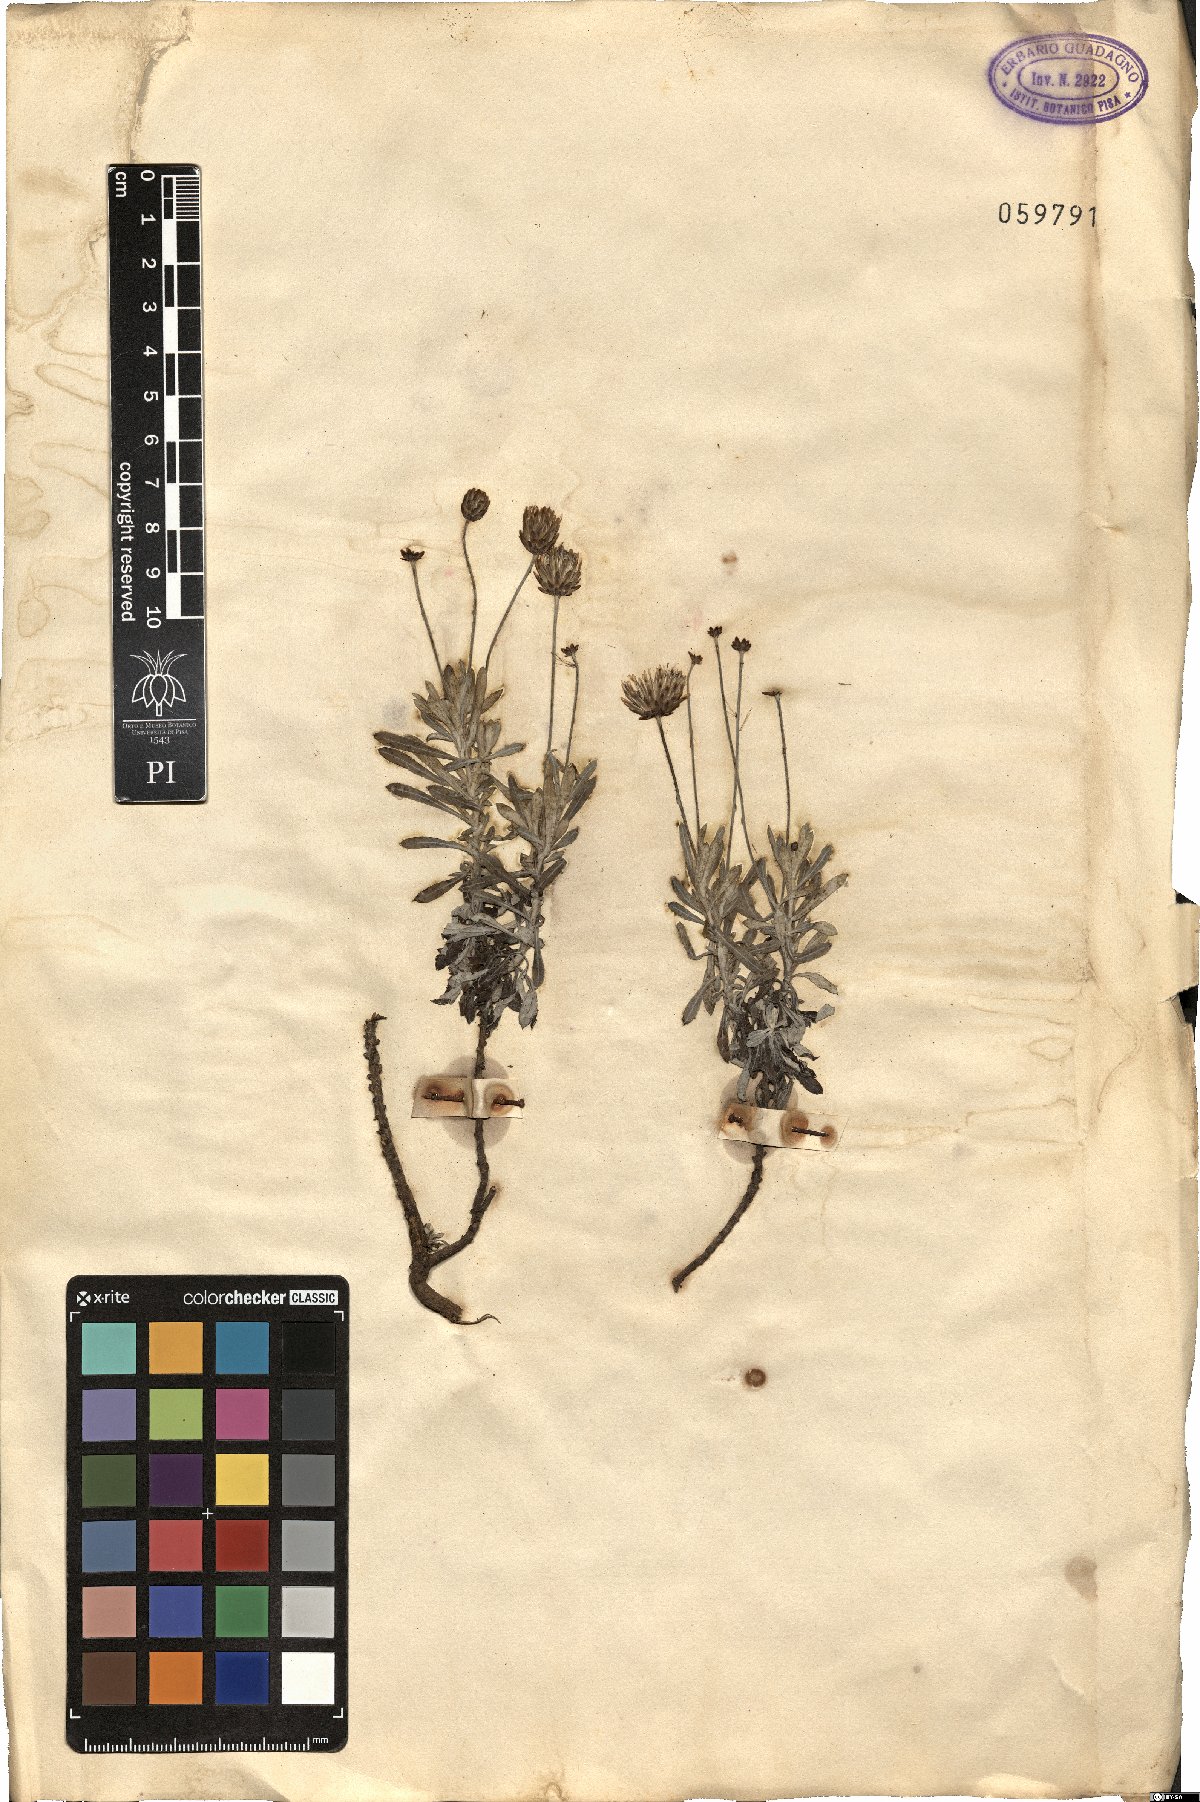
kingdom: Plantae
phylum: Tracheophyta
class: Magnoliopsida
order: Asterales
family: Asteraceae
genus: Phagnalon
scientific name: Phagnalon rupestre
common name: Rock phagnalon
